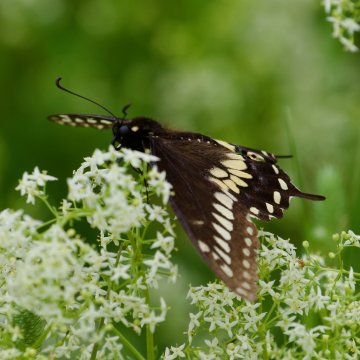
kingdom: Animalia
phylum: Arthropoda
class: Insecta
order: Lepidoptera
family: Papilionidae
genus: Papilio
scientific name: Papilio polyxenes
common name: Black Swallowtail
